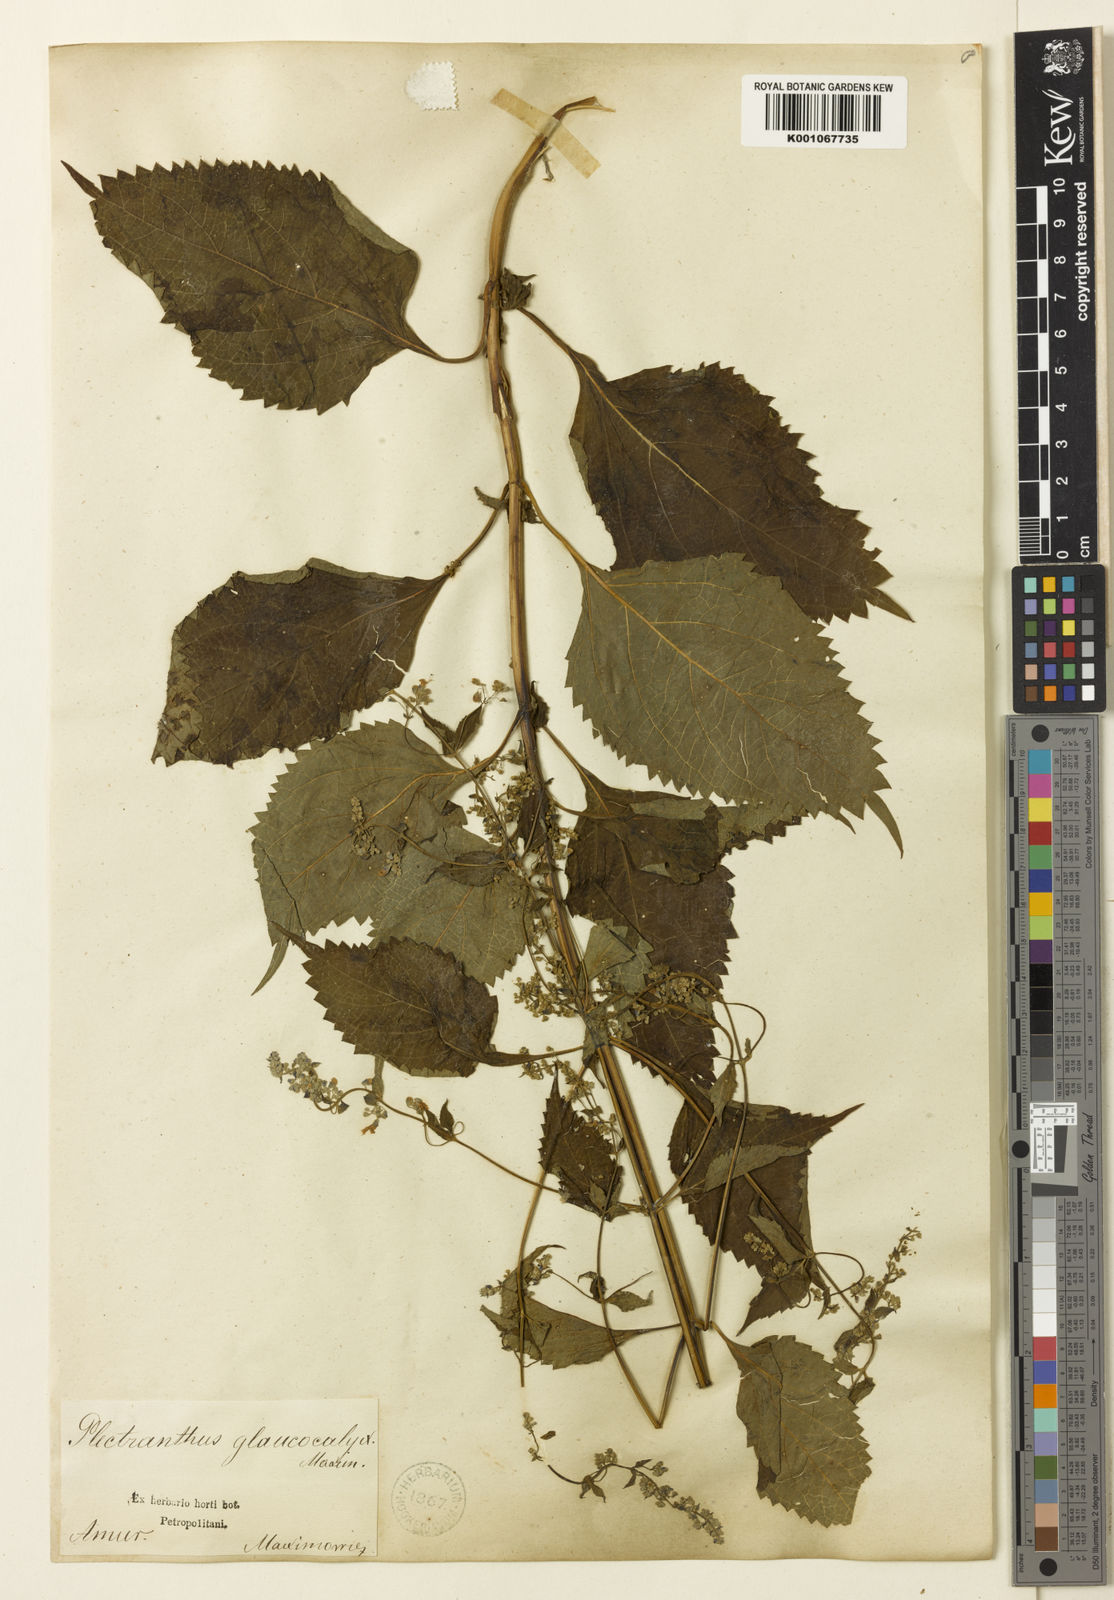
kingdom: Plantae
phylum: Tracheophyta
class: Magnoliopsida
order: Lamiales
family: Lamiaceae
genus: Isodon
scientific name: Isodon japonicus
